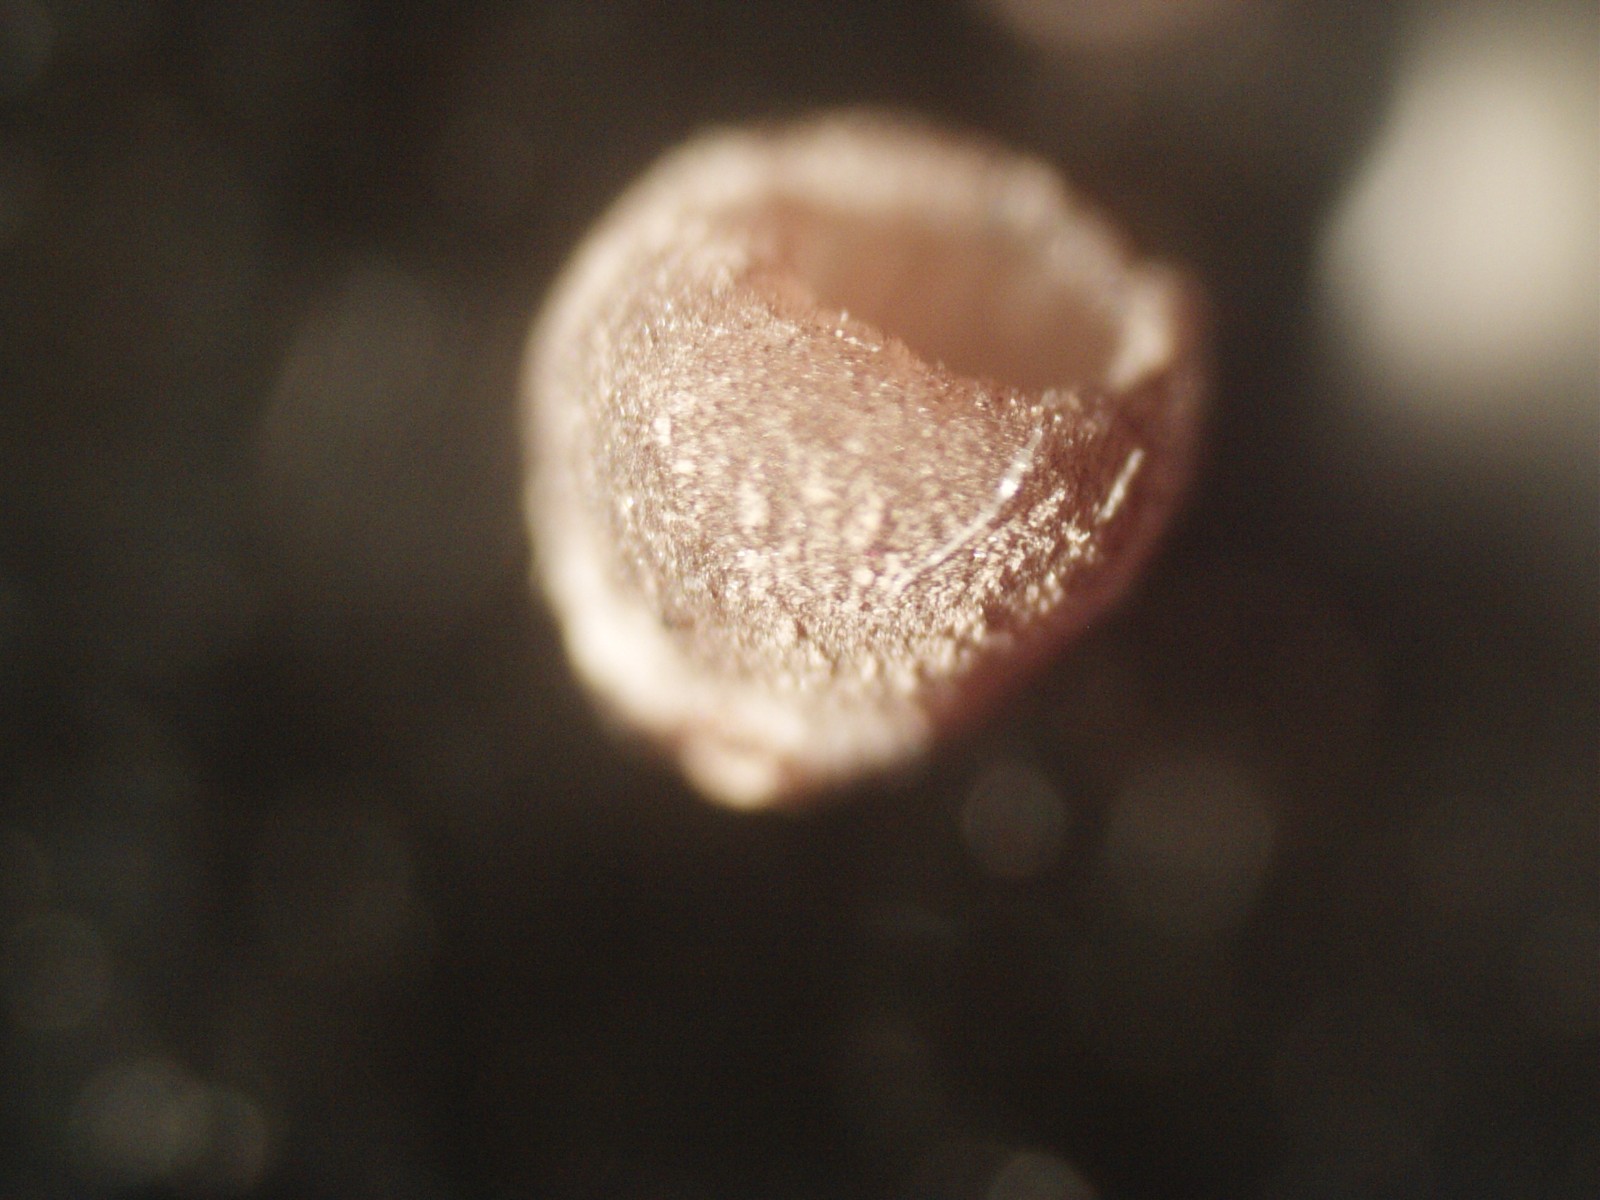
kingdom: Fungi
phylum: Basidiomycota
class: Agaricomycetes
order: Agaricales
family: Pleurotaceae
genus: Resupinatus
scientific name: Resupinatus applicatus
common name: lysfiltet barkhat
